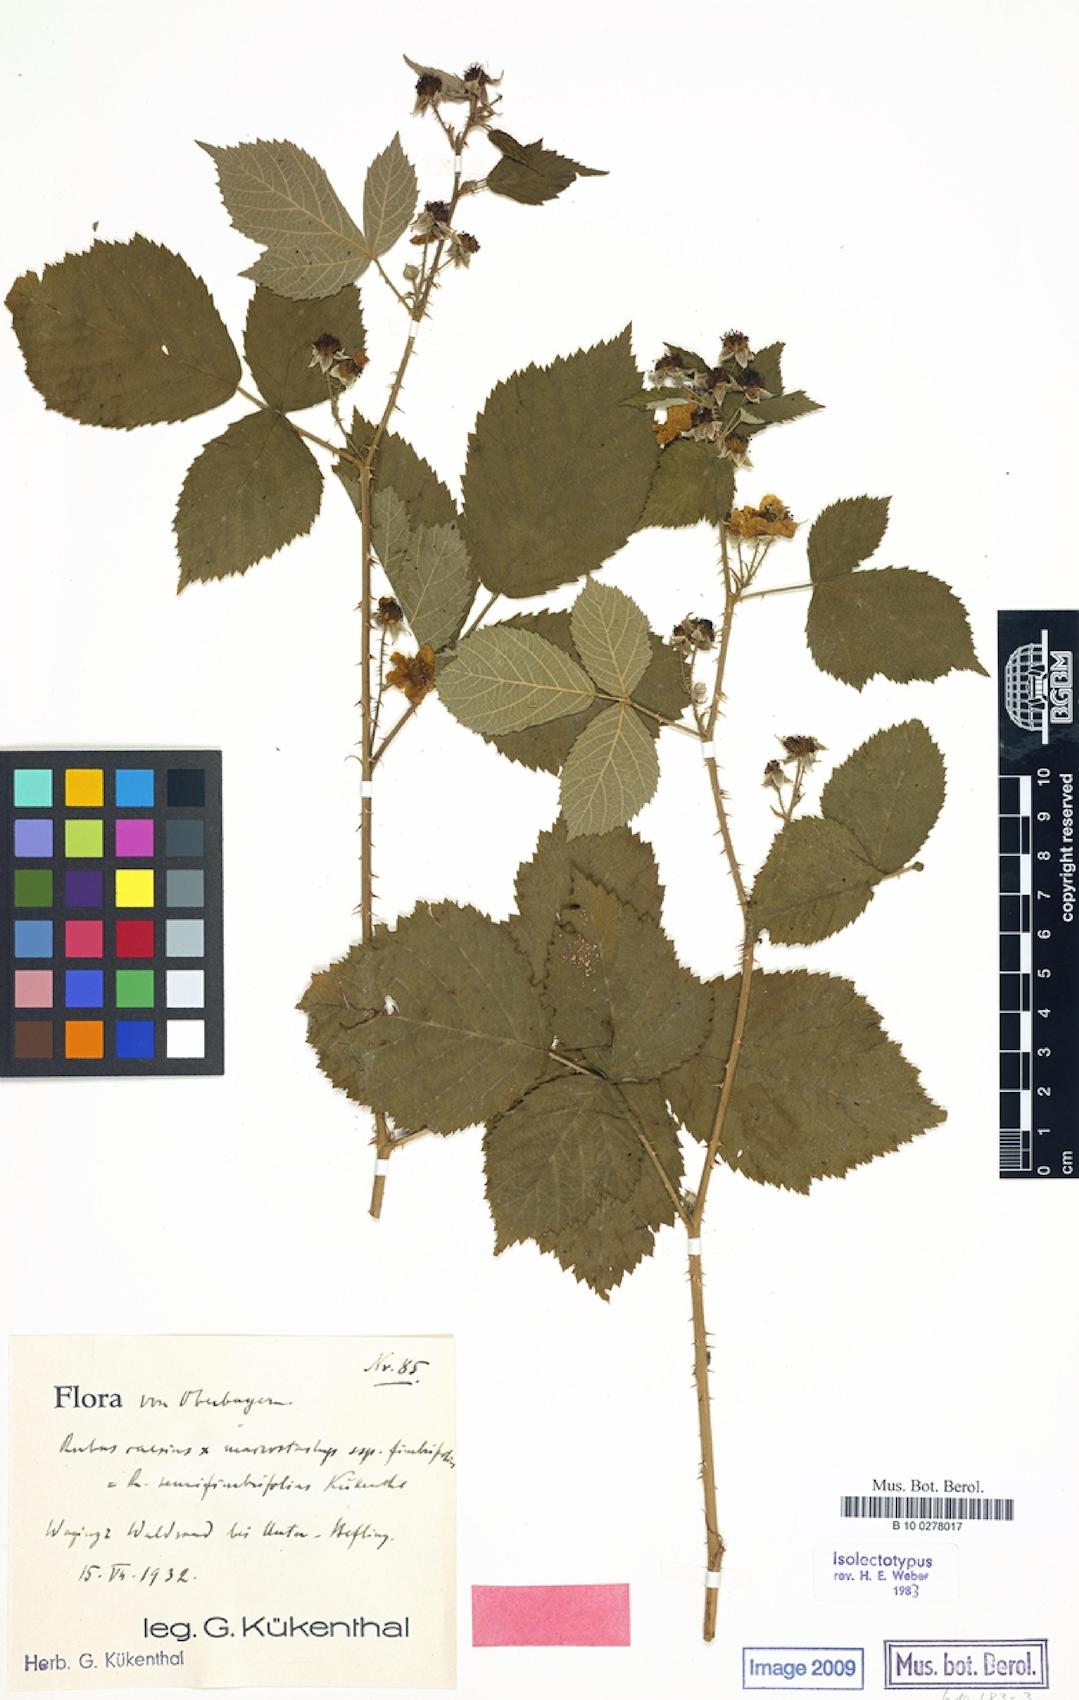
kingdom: Plantae
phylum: Tracheophyta
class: Magnoliopsida
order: Rosales
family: Rosaceae
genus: Rubus
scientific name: Rubus semifimbrifolius
